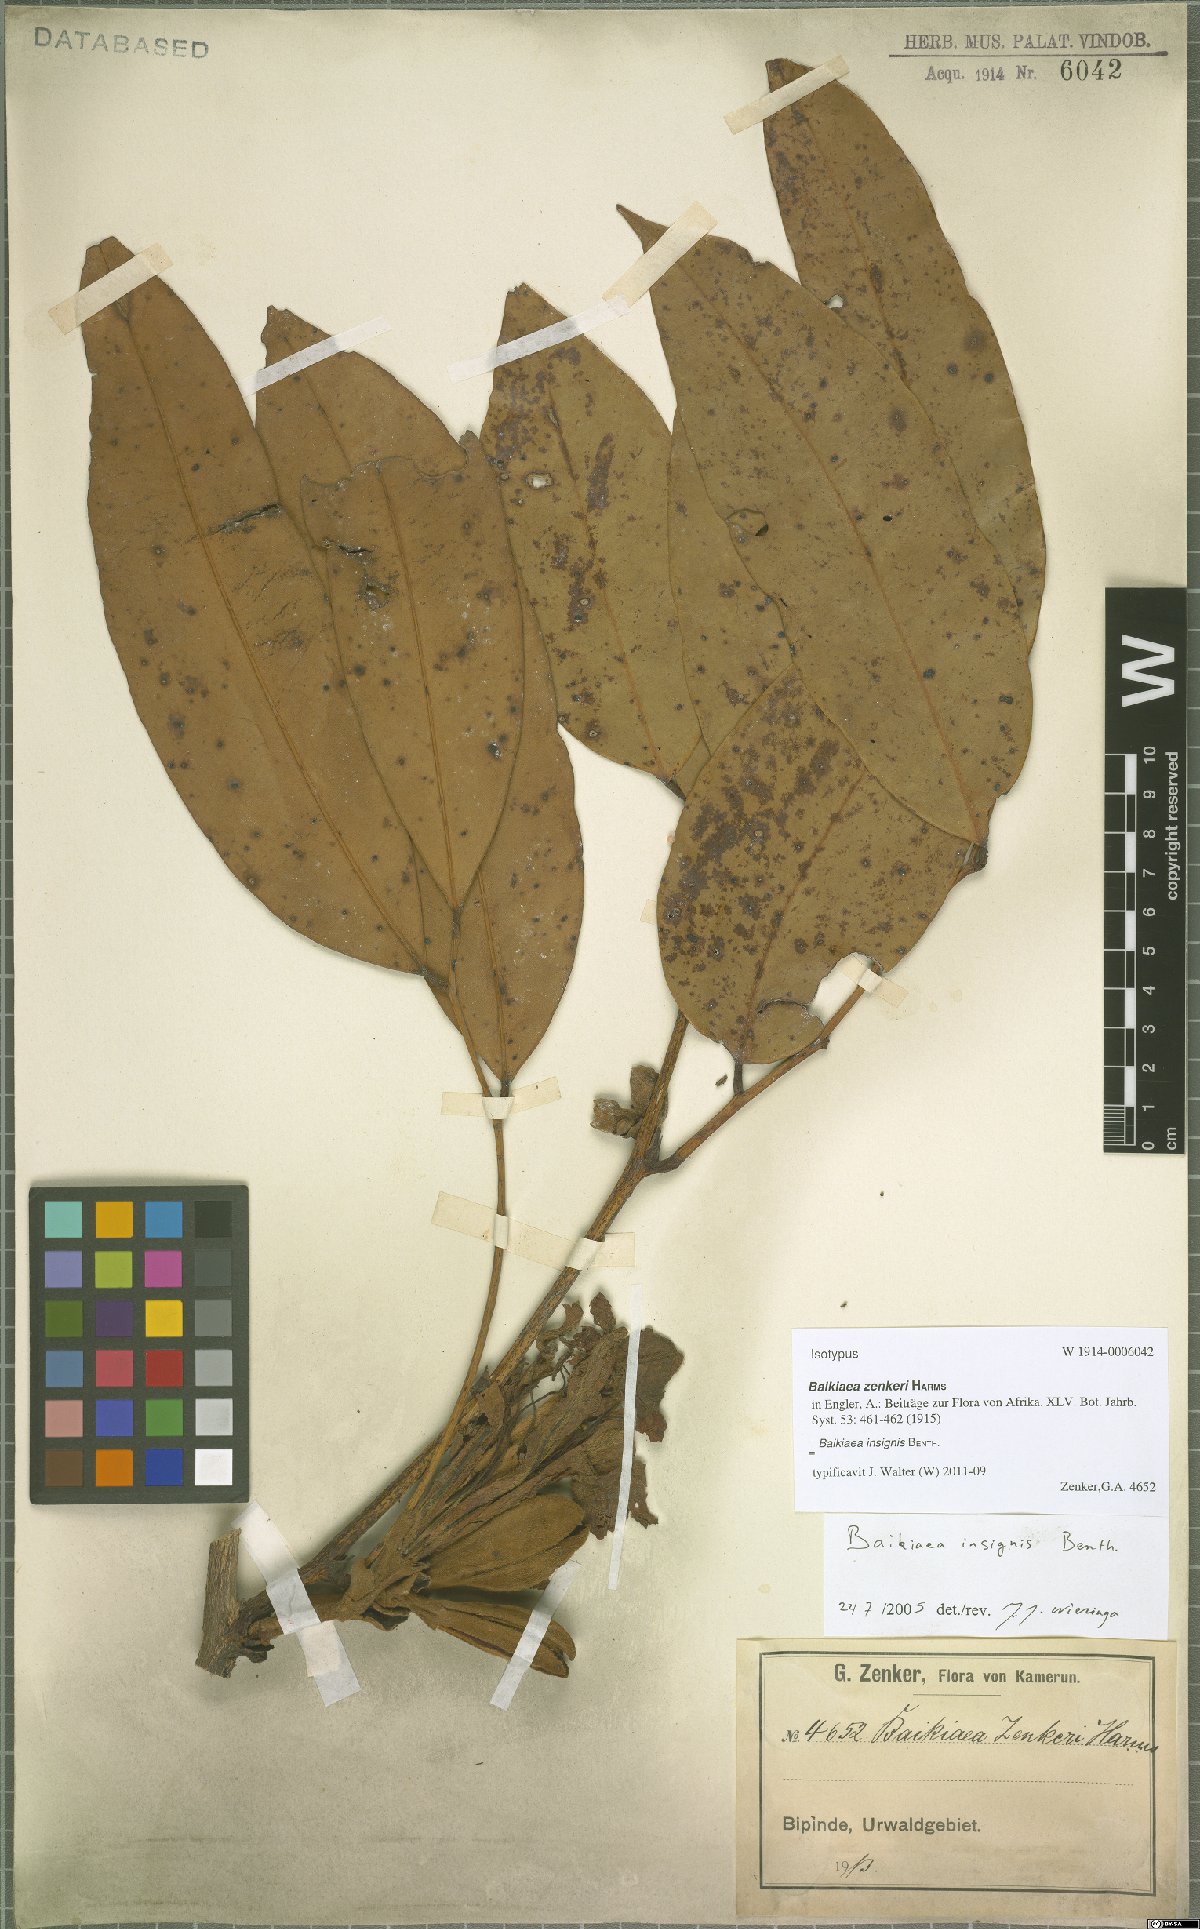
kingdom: Plantae
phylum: Tracheophyta
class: Magnoliopsida
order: Fabales
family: Fabaceae
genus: Baikiaea
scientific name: Baikiaea insignis
